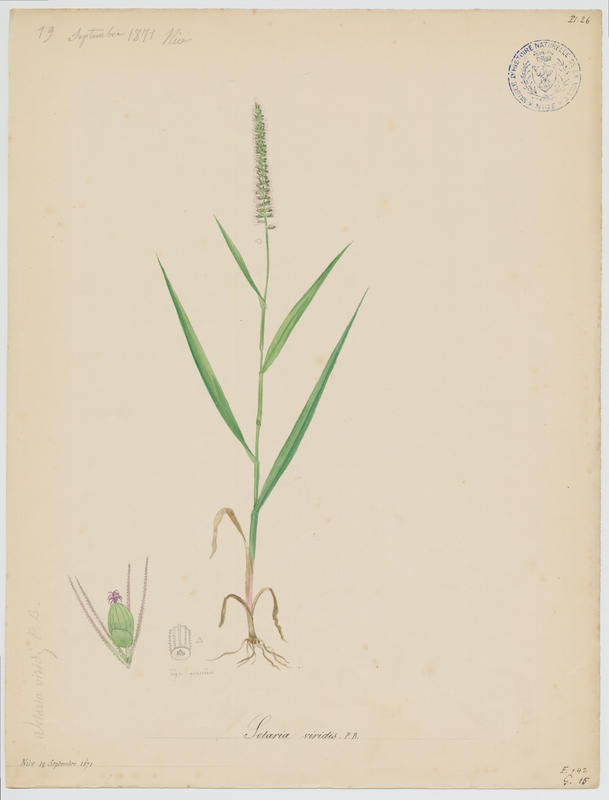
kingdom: Plantae
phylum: Tracheophyta
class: Liliopsida
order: Poales
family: Poaceae
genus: Setaria
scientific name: Setaria viridis
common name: Green bristlegrass
